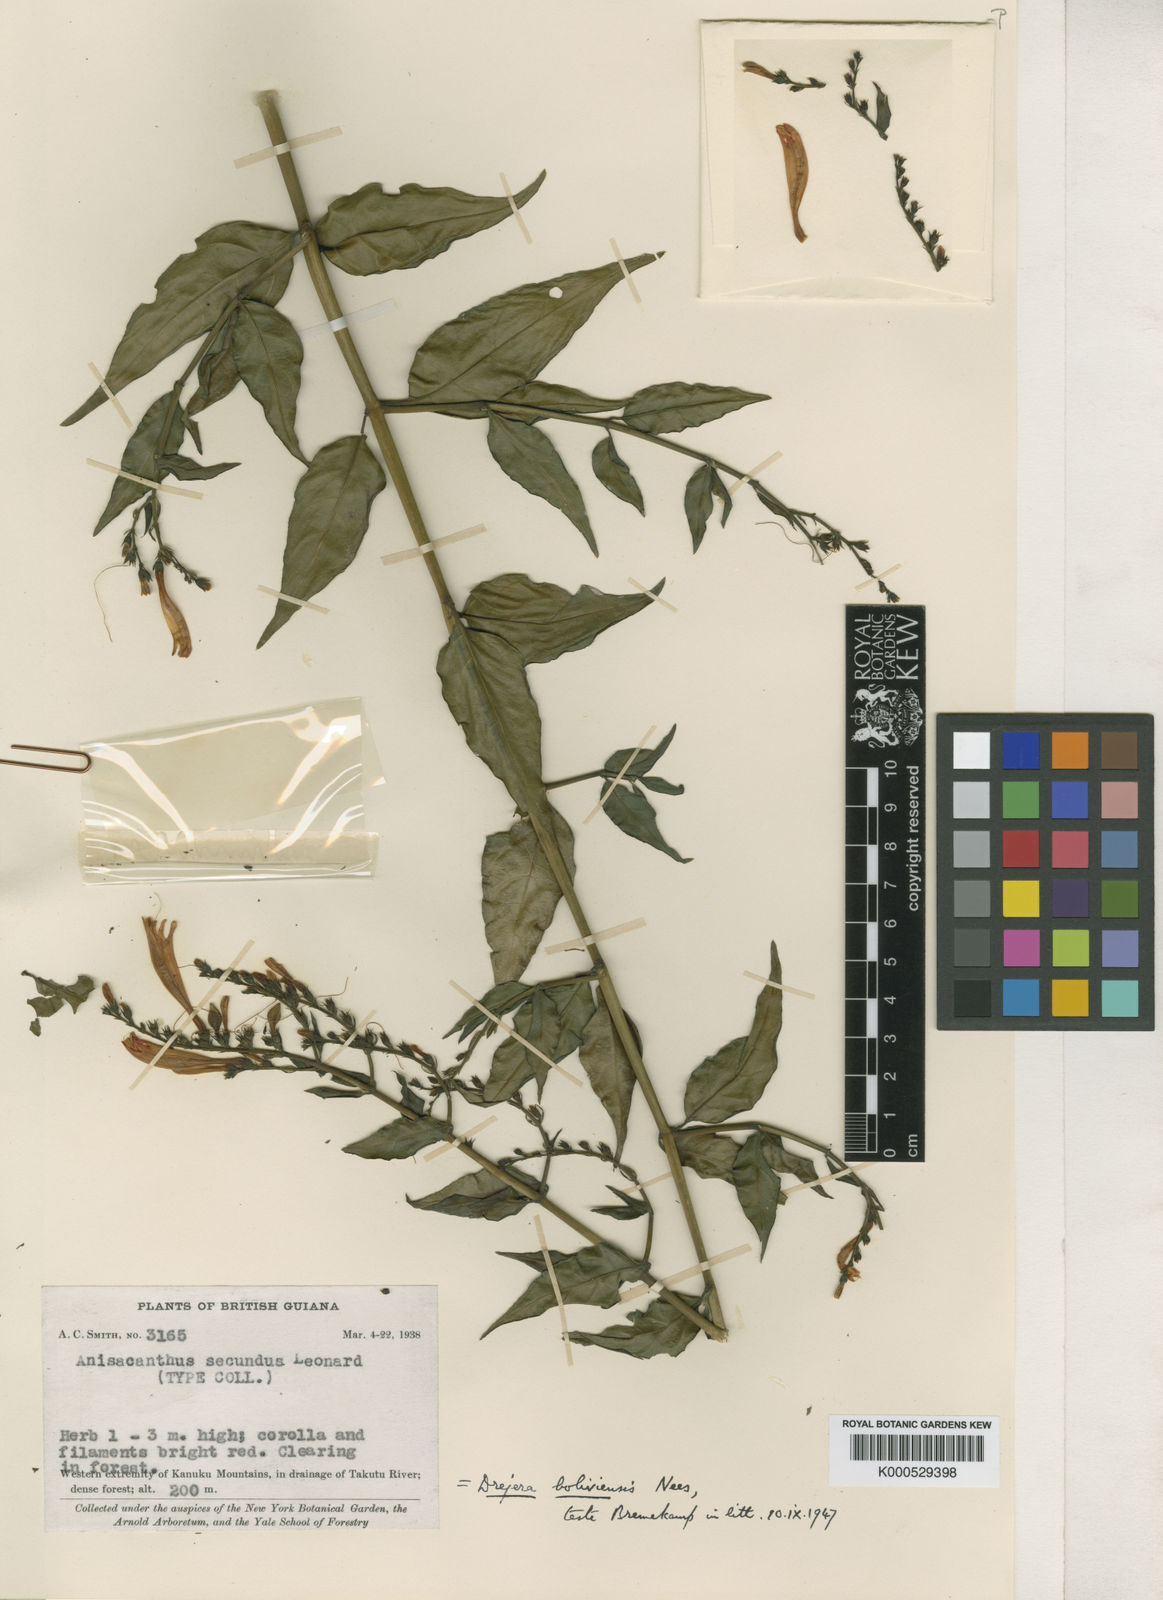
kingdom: Plantae
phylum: Tracheophyta
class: Magnoliopsida
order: Lamiales
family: Acanthaceae
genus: Thyrsacanthus
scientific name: Thyrsacanthus boliviensis
